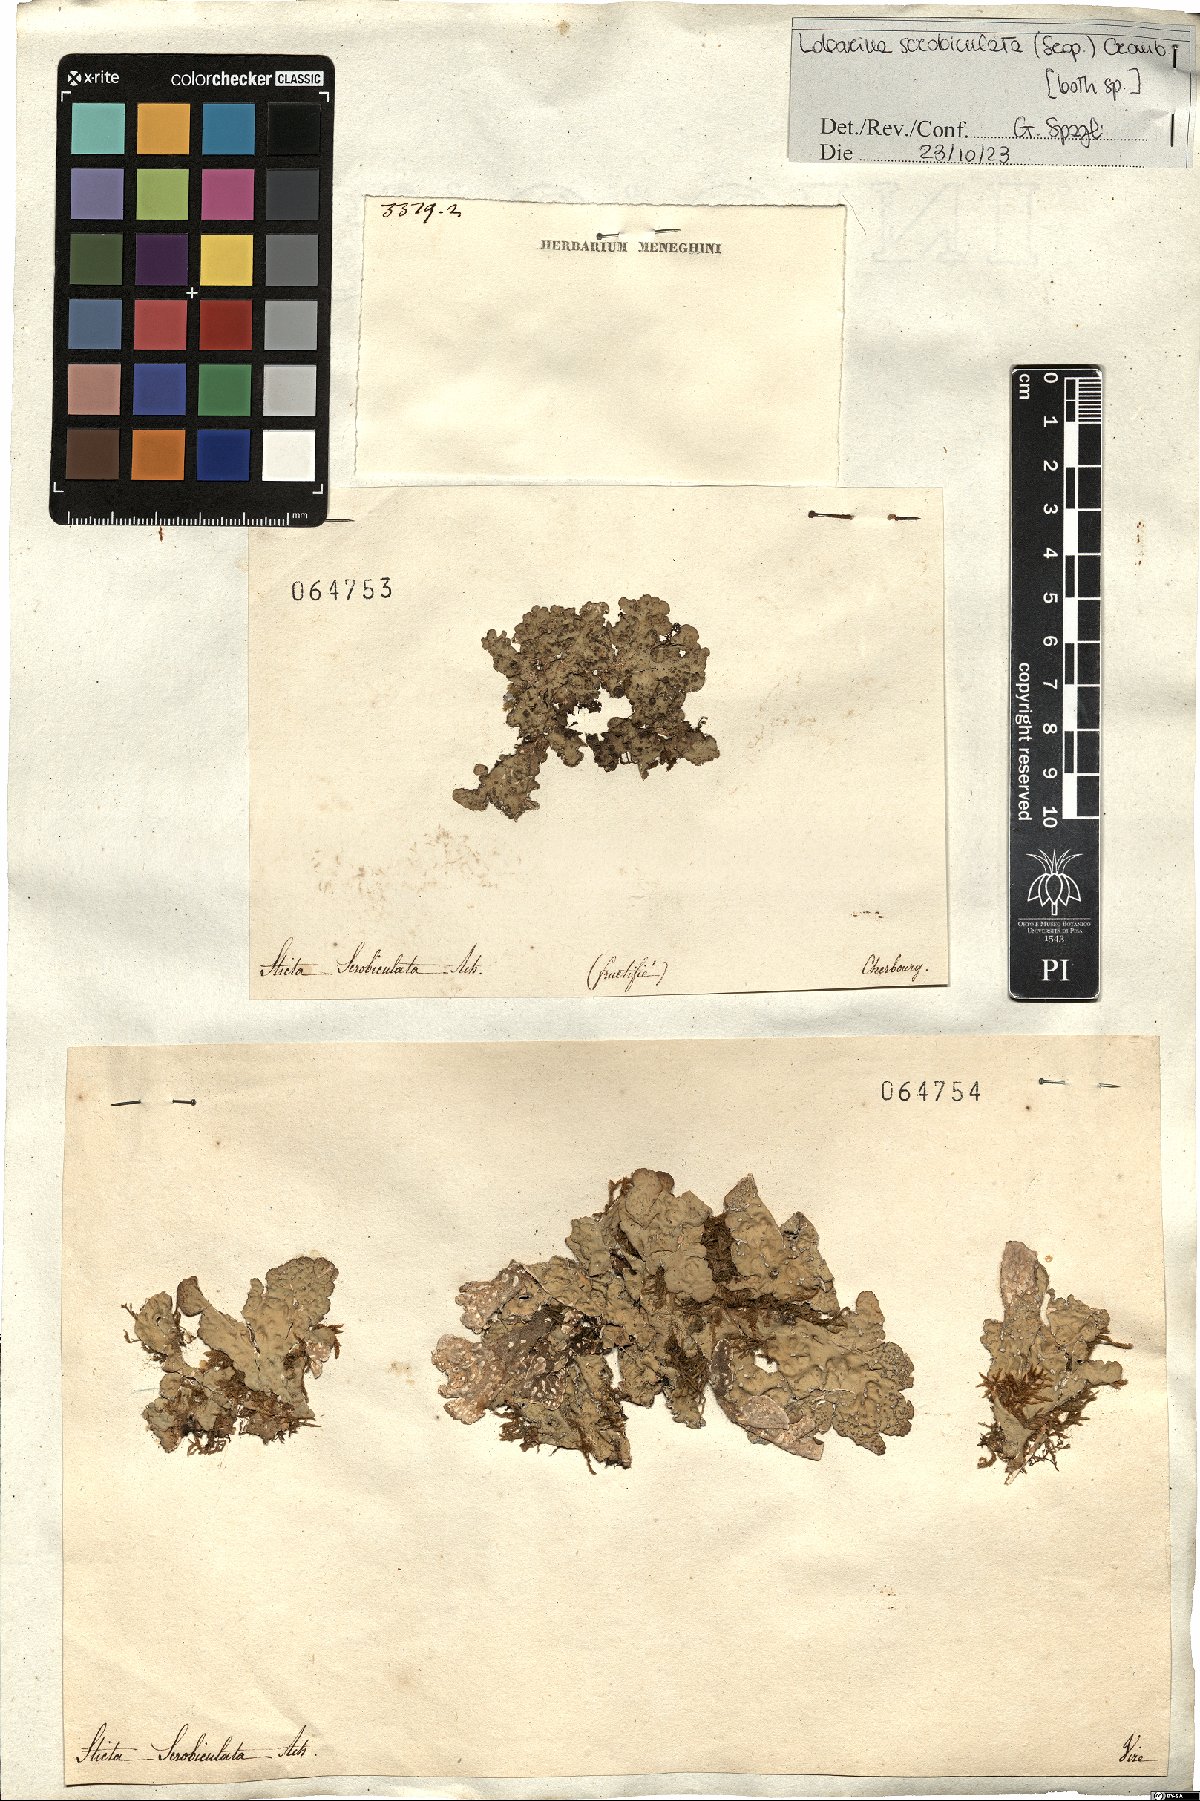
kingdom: Fungi
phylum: Ascomycota
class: Lecanoromycetes
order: Peltigerales
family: Lobariaceae
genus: Lobarina
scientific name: Lobarina scrobiculata
